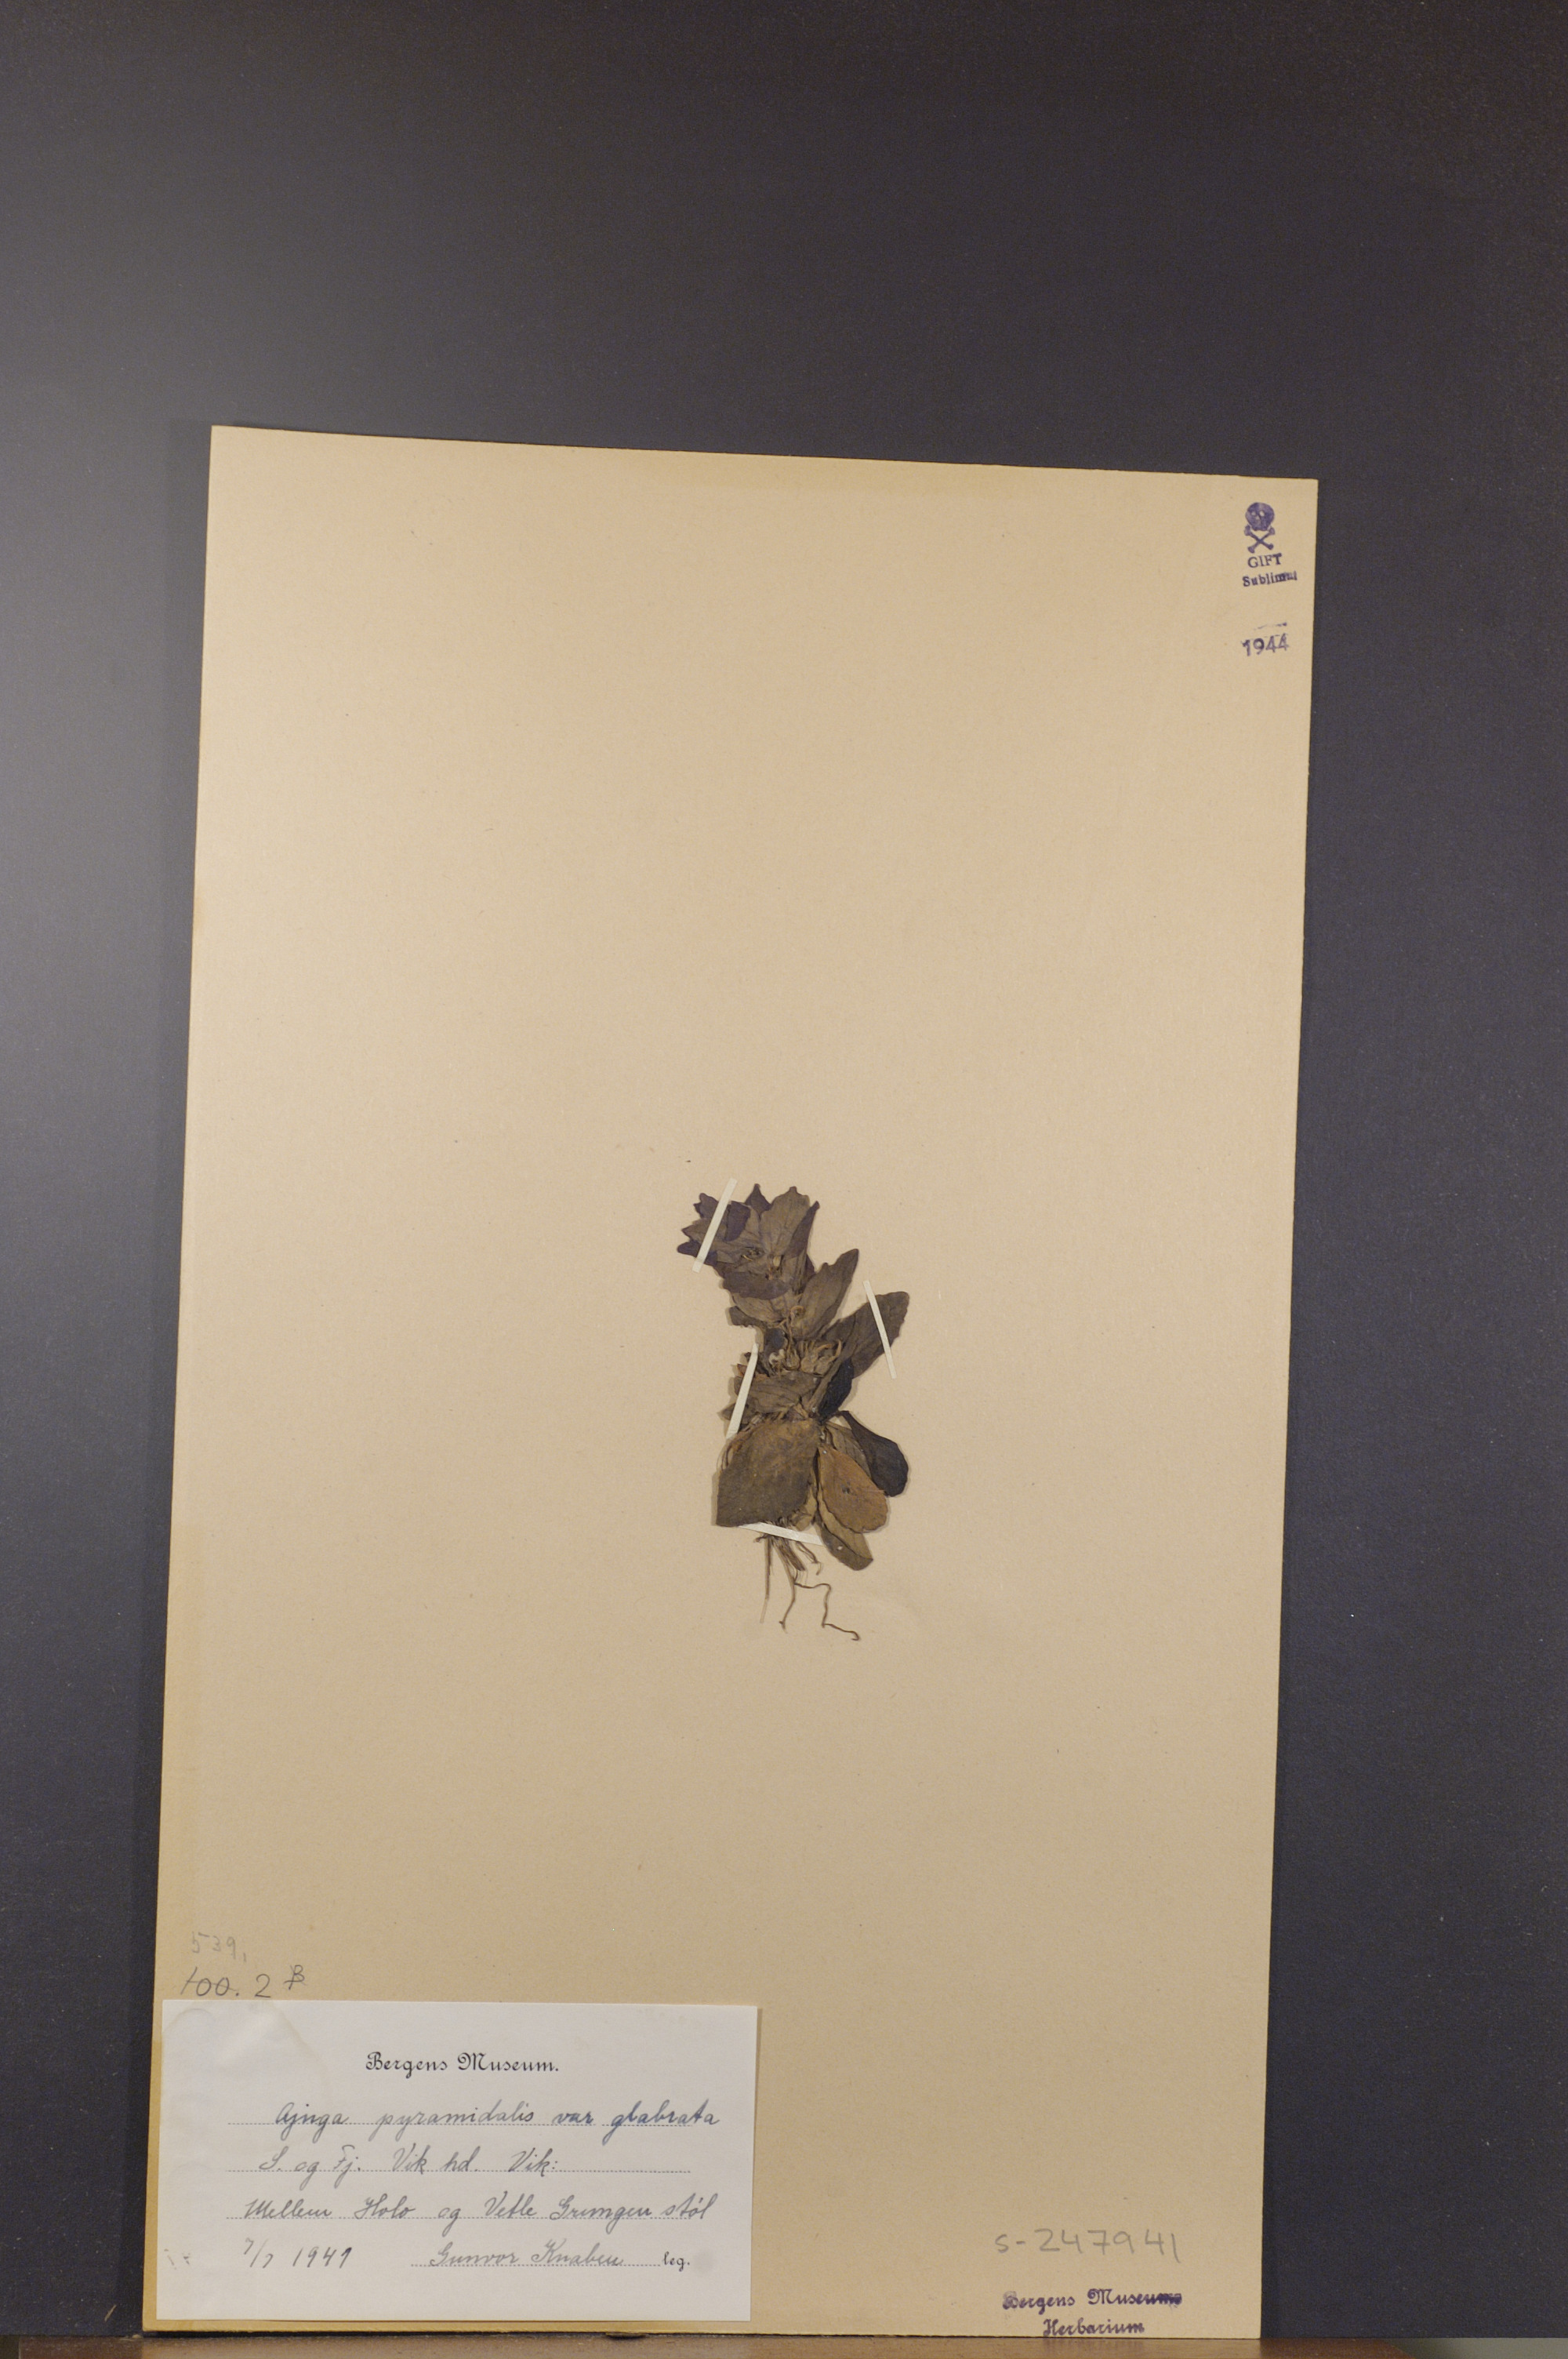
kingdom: Plantae
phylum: Tracheophyta
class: Magnoliopsida
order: Lamiales
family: Lamiaceae
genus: Ajuga
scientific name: Ajuga pyramidalis
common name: Pyramid bugle
